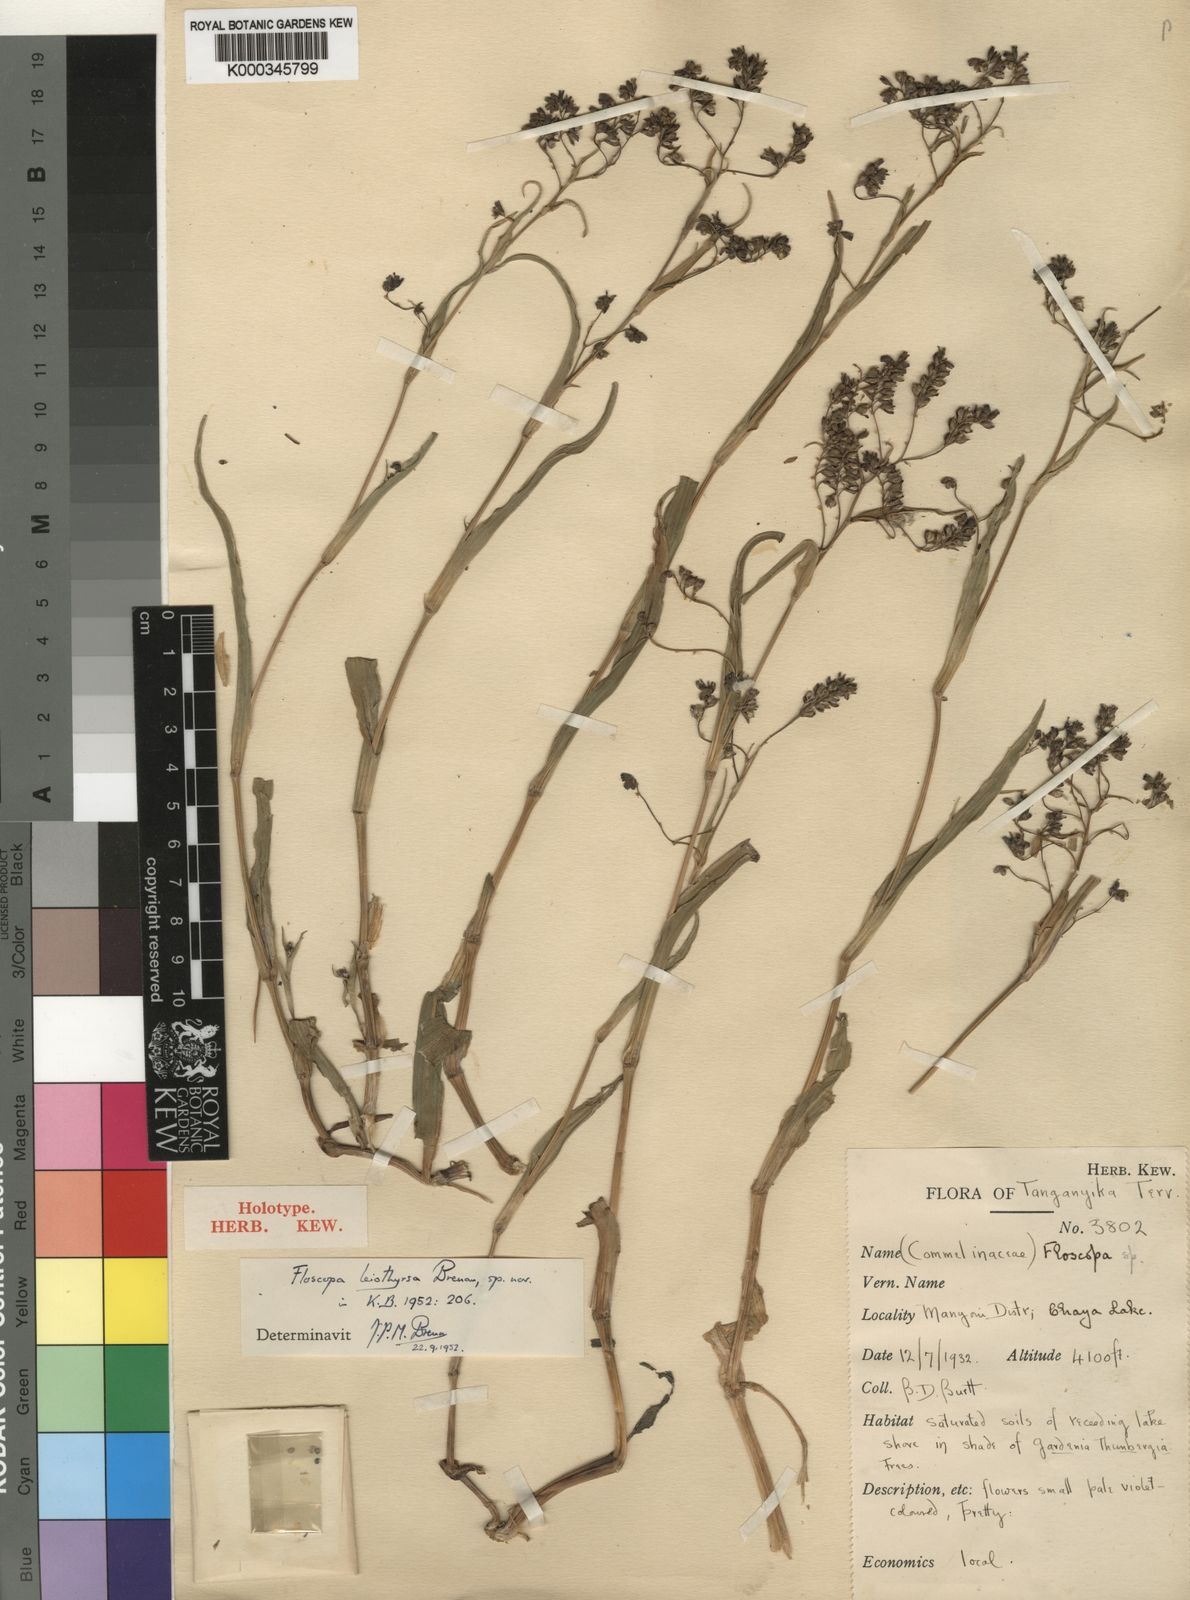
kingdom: Plantae
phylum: Tracheophyta
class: Liliopsida
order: Commelinales
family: Commelinaceae
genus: Floscopa
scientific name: Floscopa leiothyrsa
